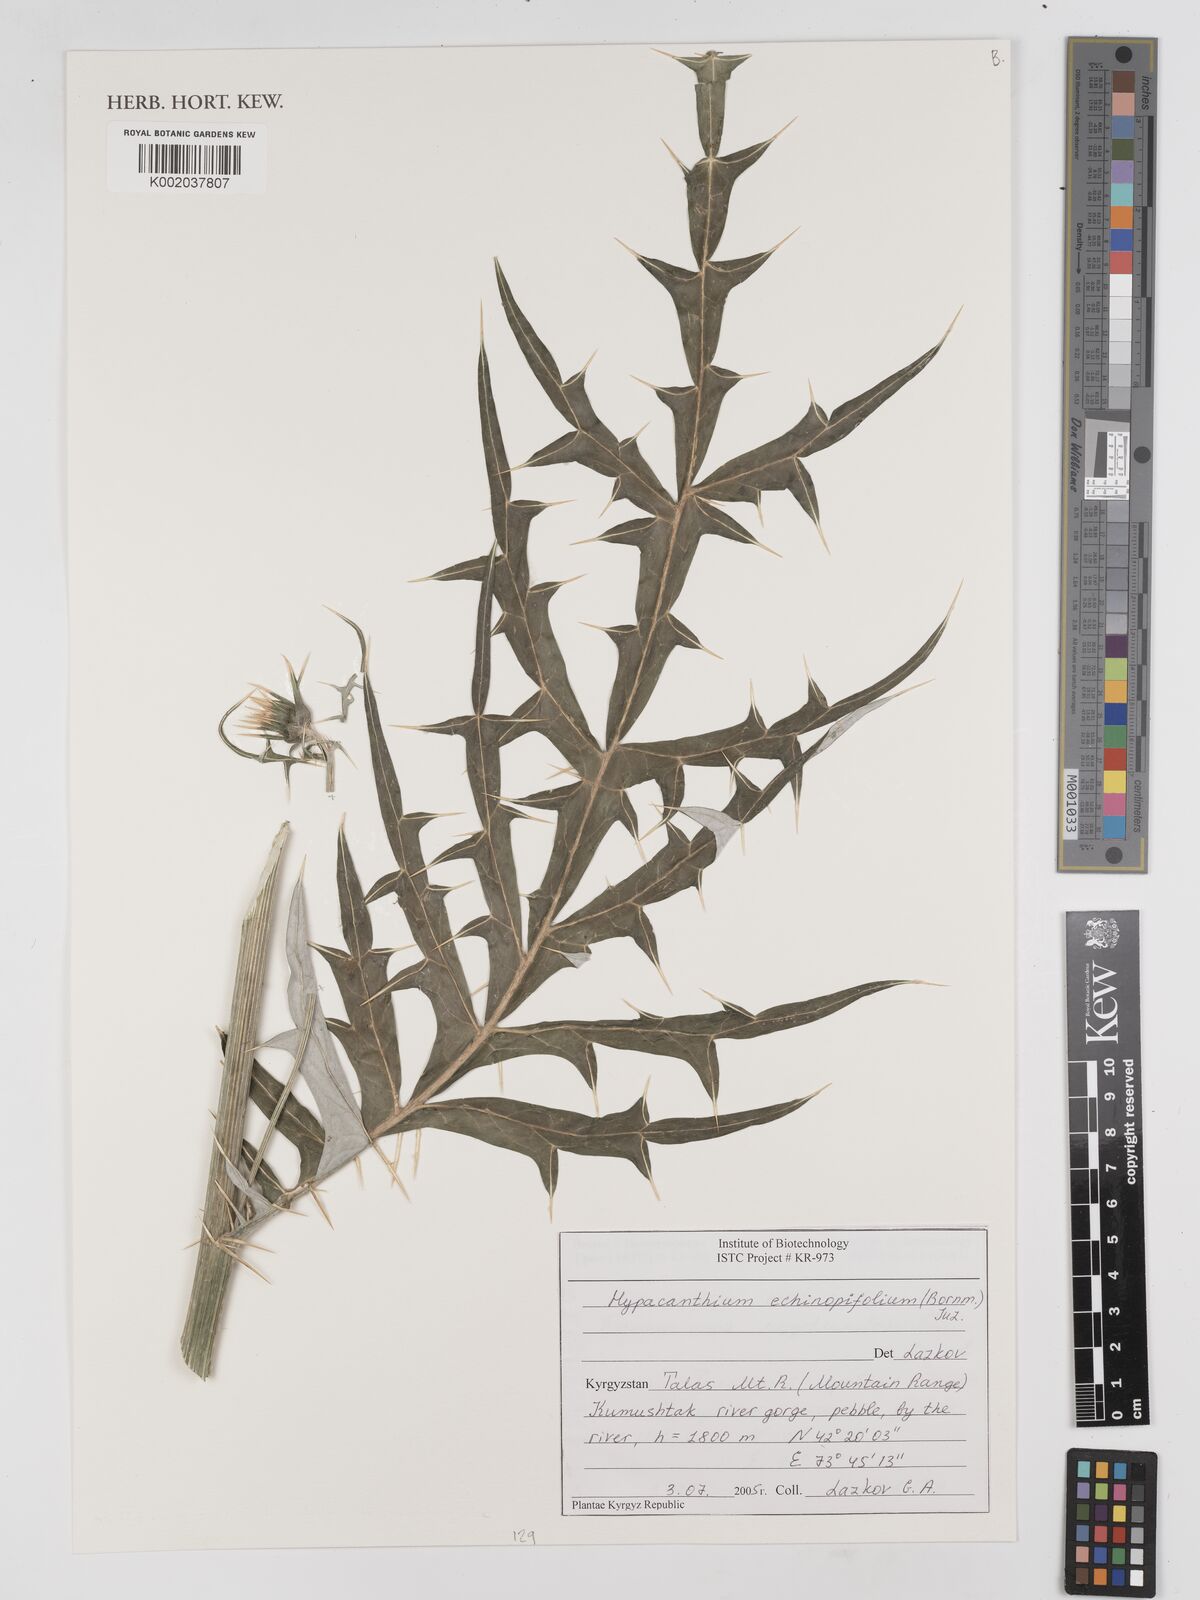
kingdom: Plantae
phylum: Tracheophyta
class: Magnoliopsida
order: Asterales
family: Asteraceae
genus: Arctium
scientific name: Arctium echinopifolium
